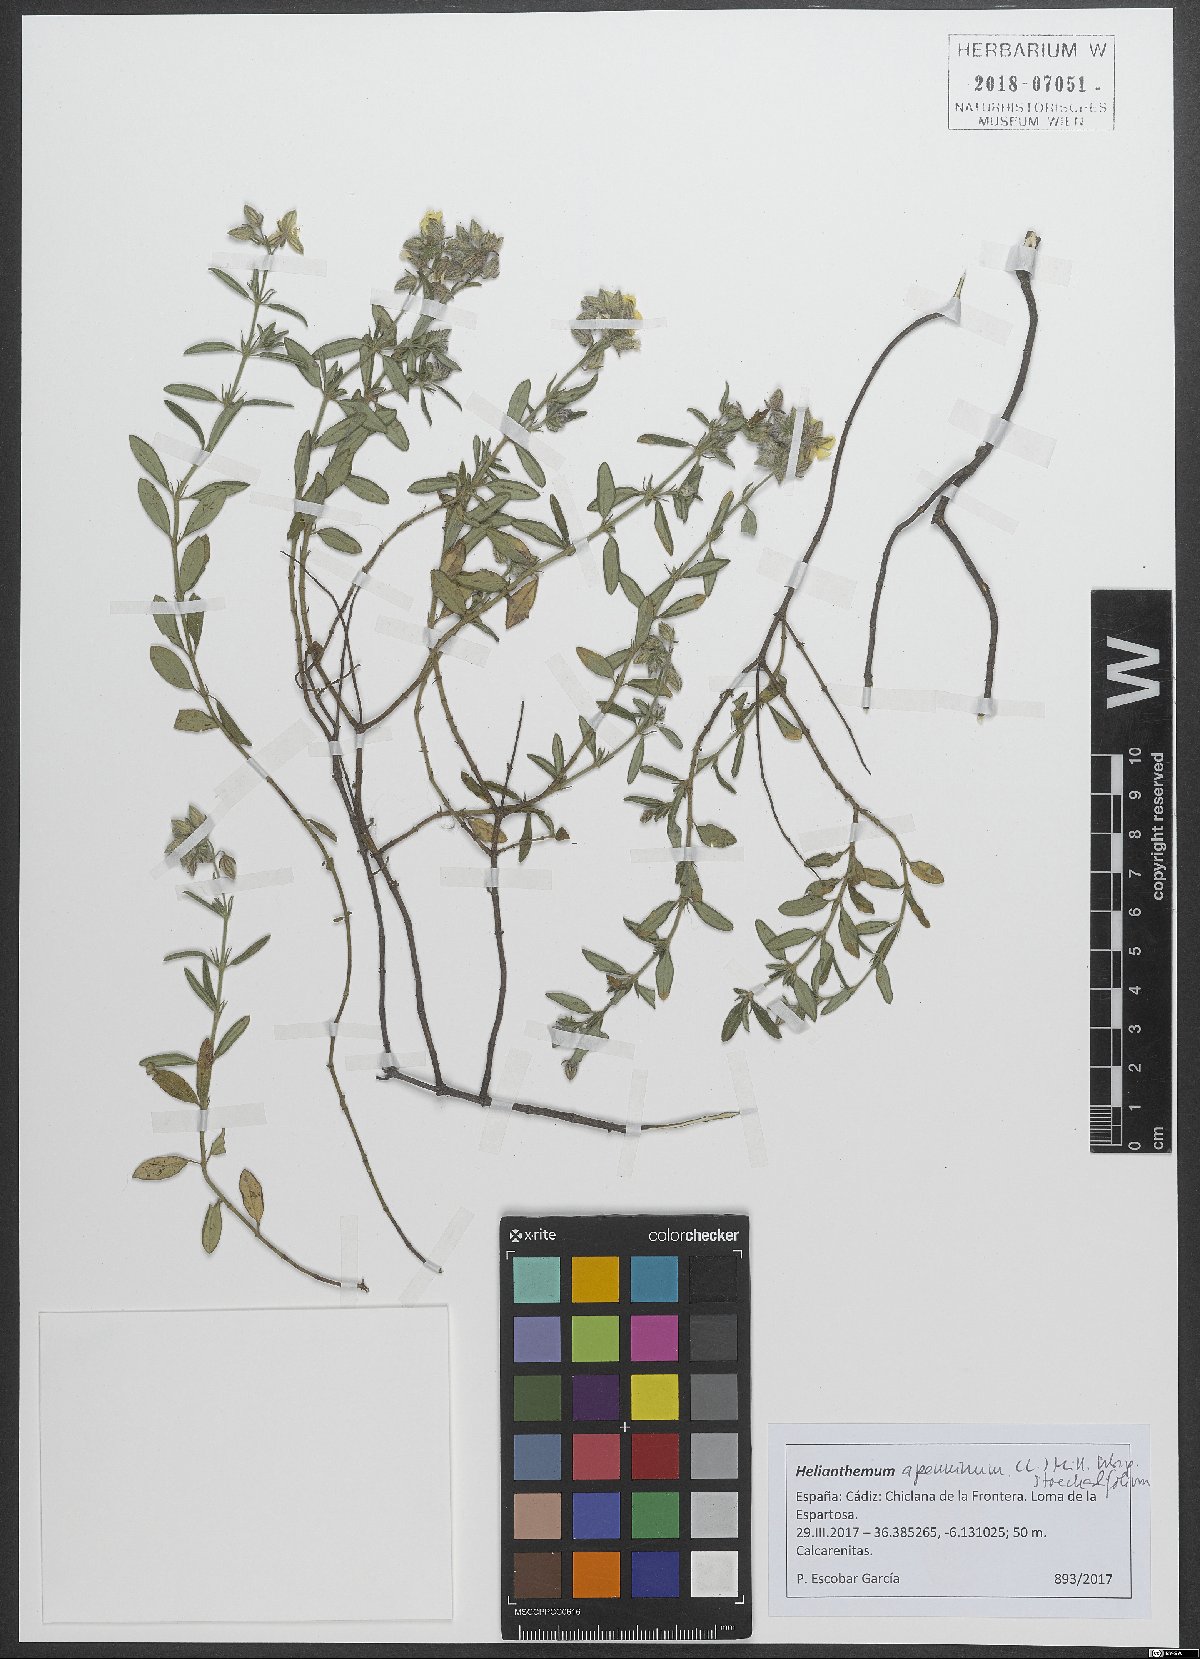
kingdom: Plantae
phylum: Tracheophyta
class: Magnoliopsida
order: Malvales
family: Cistaceae
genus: Helianthemum
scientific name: Helianthemum apenninum
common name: White rock-rose
